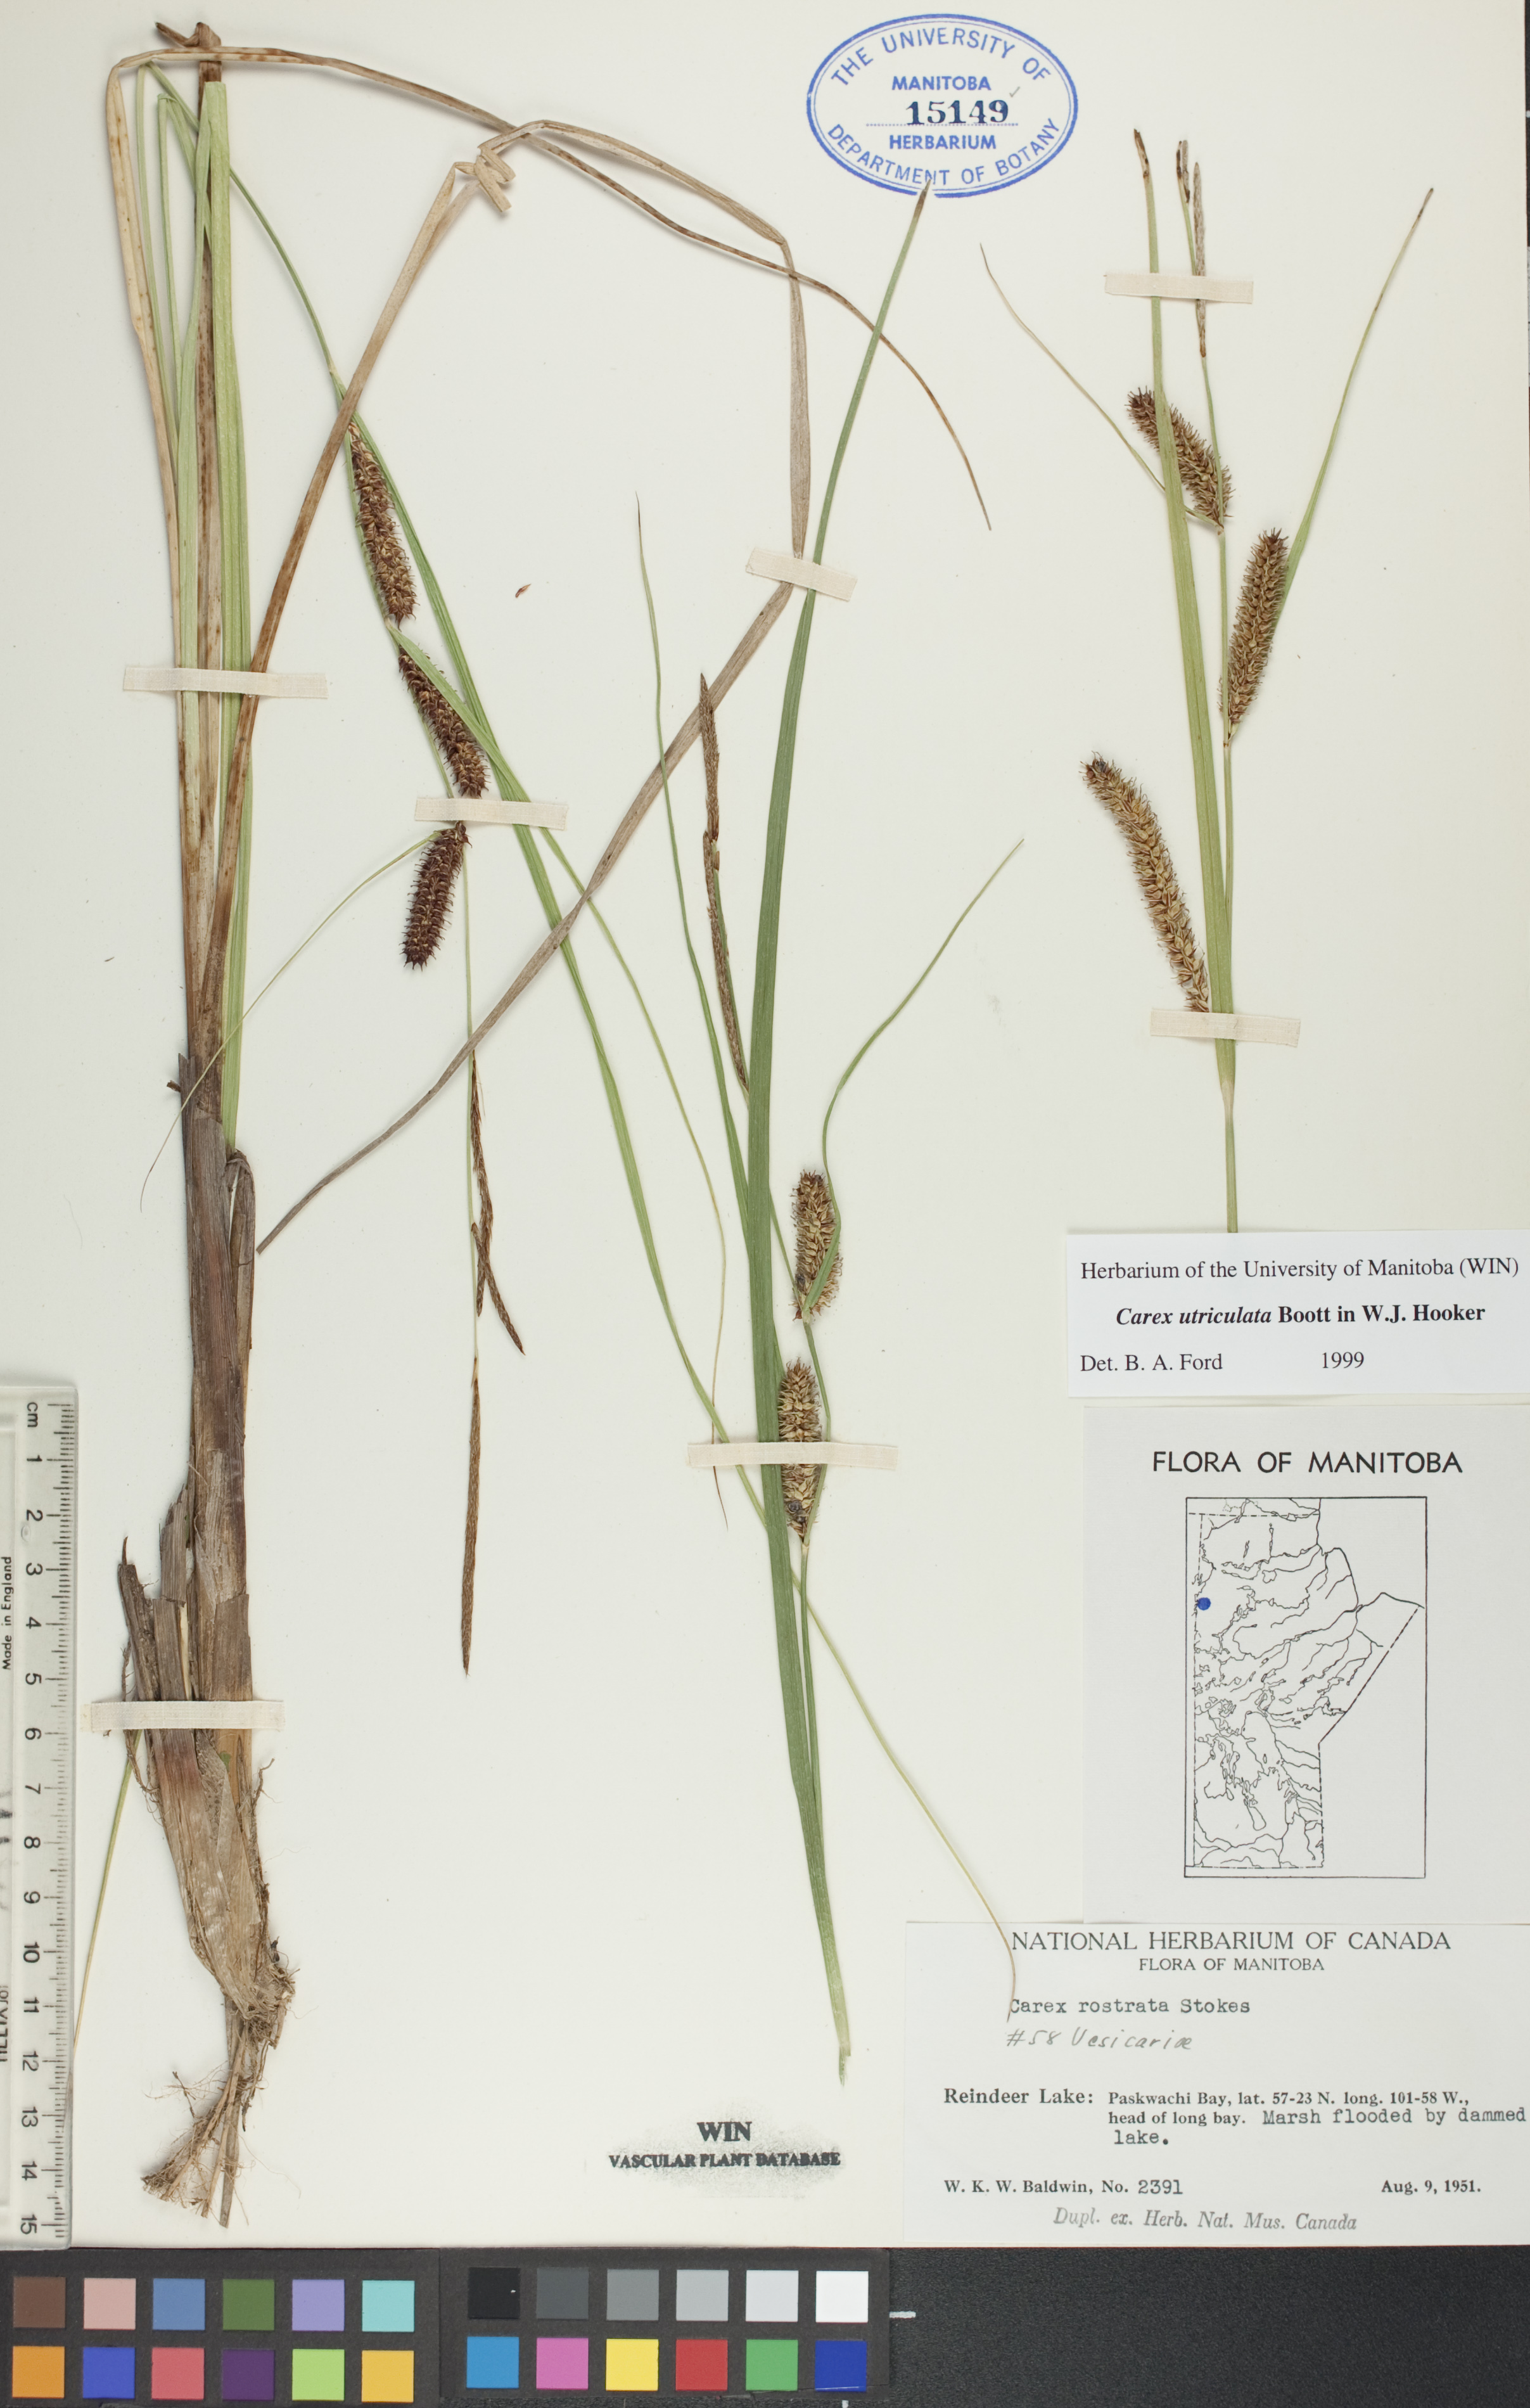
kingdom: Plantae
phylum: Tracheophyta
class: Liliopsida
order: Poales
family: Cyperaceae
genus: Carex
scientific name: Carex utriculata
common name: Beaked sedge
